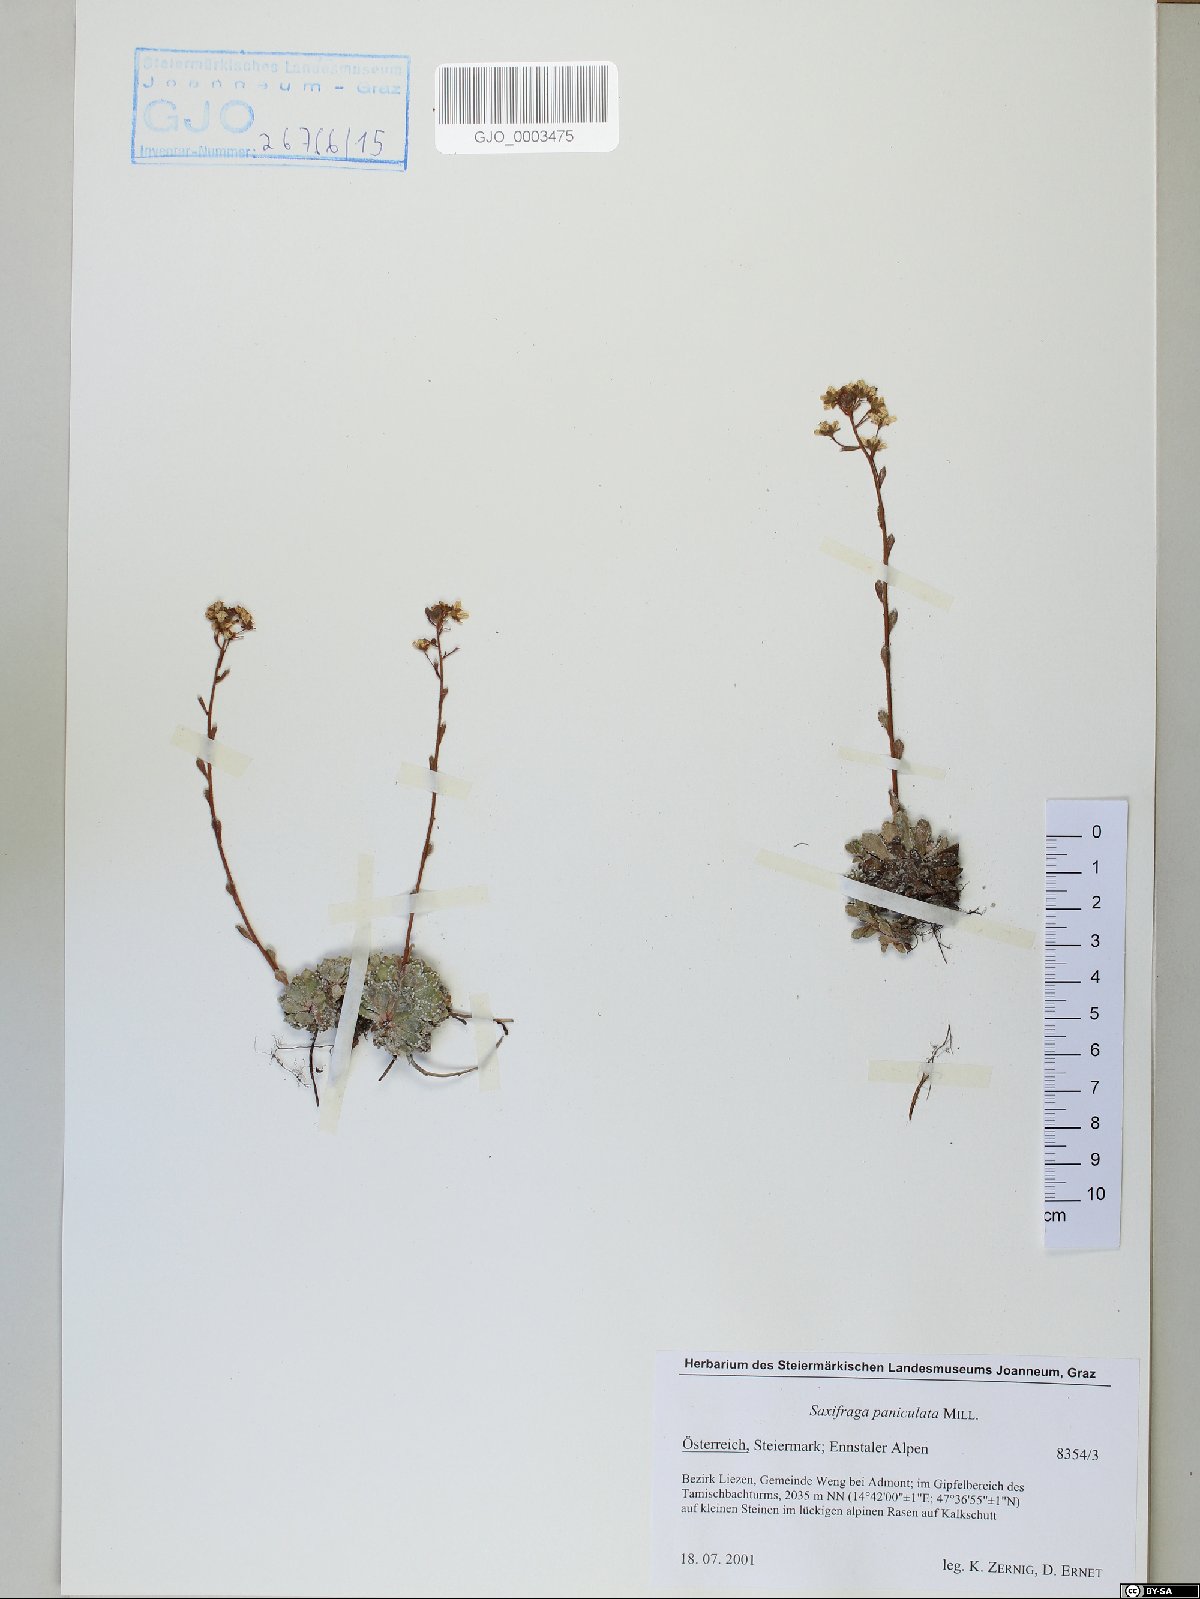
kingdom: Plantae
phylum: Tracheophyta
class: Magnoliopsida
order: Saxifragales
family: Saxifragaceae
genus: Saxifraga
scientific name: Saxifraga paniculata
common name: Livelong saxifrage
